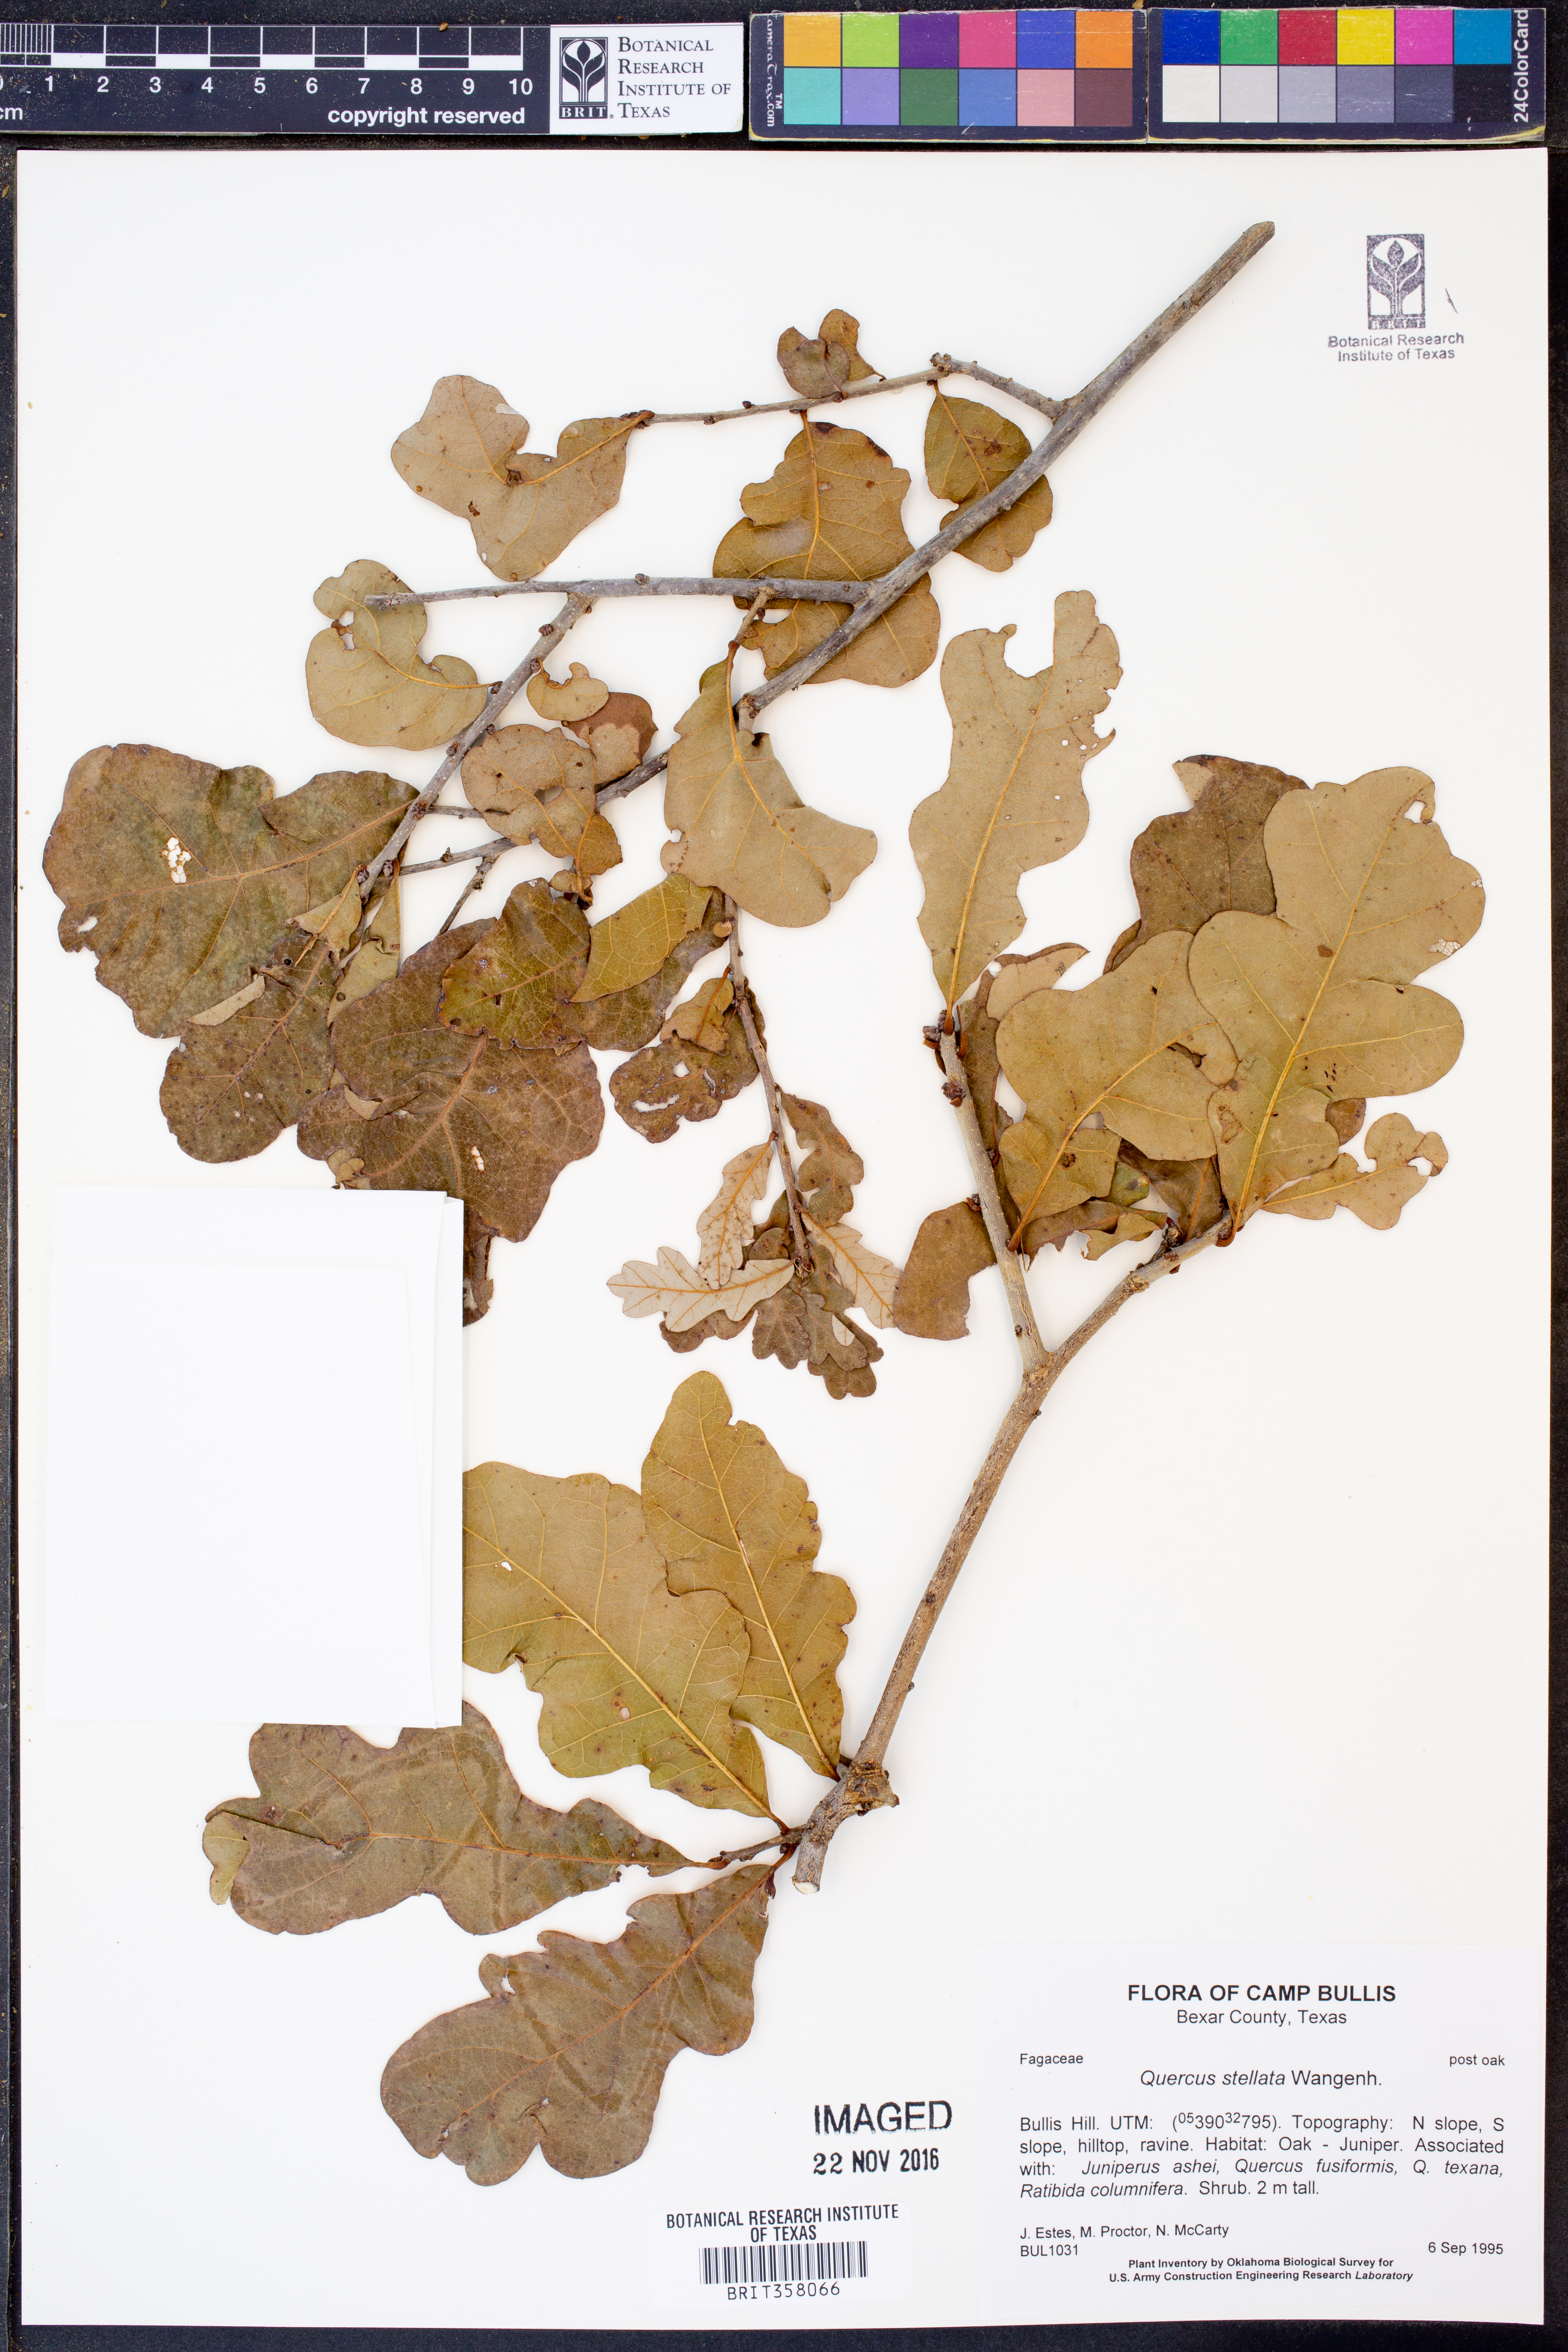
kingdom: Plantae
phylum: Tracheophyta
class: Magnoliopsida
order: Fagales
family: Fagaceae
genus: Quercus
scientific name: Quercus stellata
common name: Post oak
